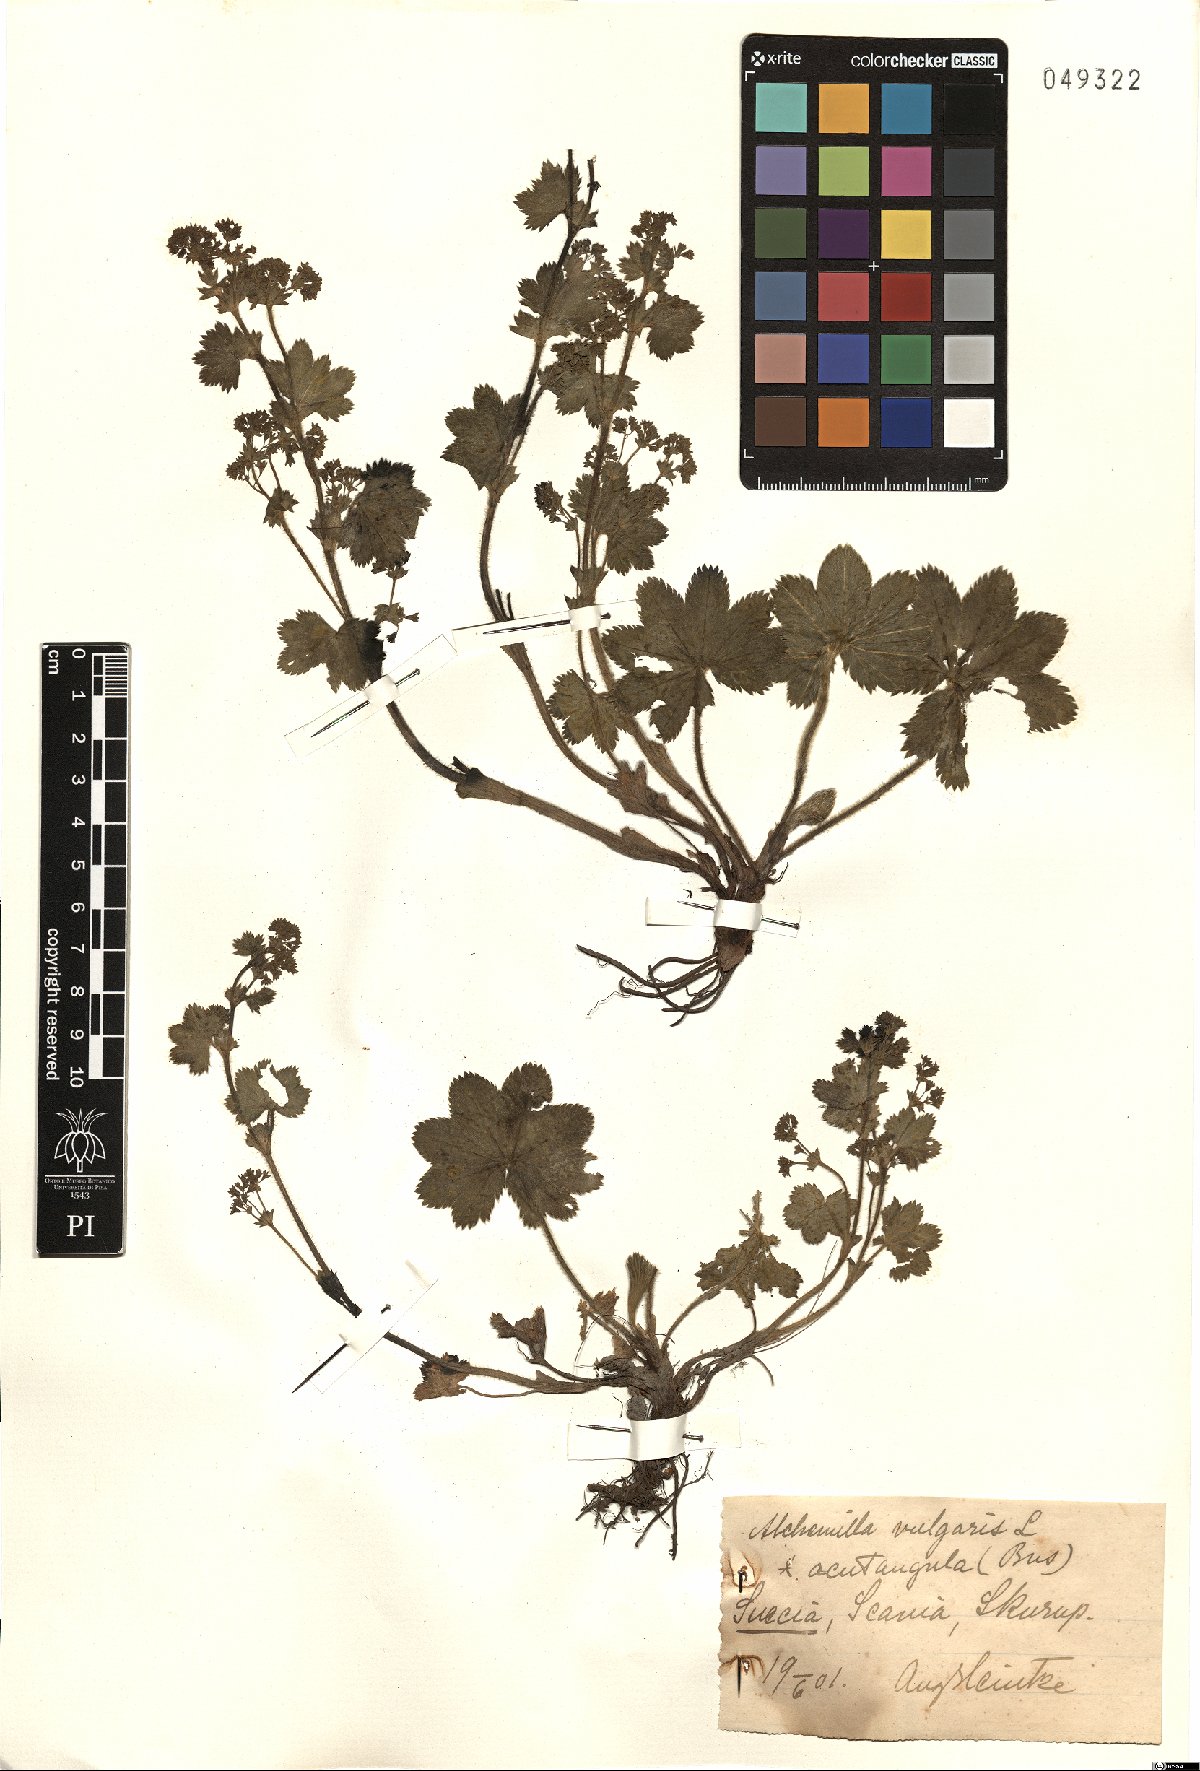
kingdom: Plantae
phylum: Tracheophyta
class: Magnoliopsida
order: Rosales
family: Rosaceae
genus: Alchemilla
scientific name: Alchemilla vulgaris
